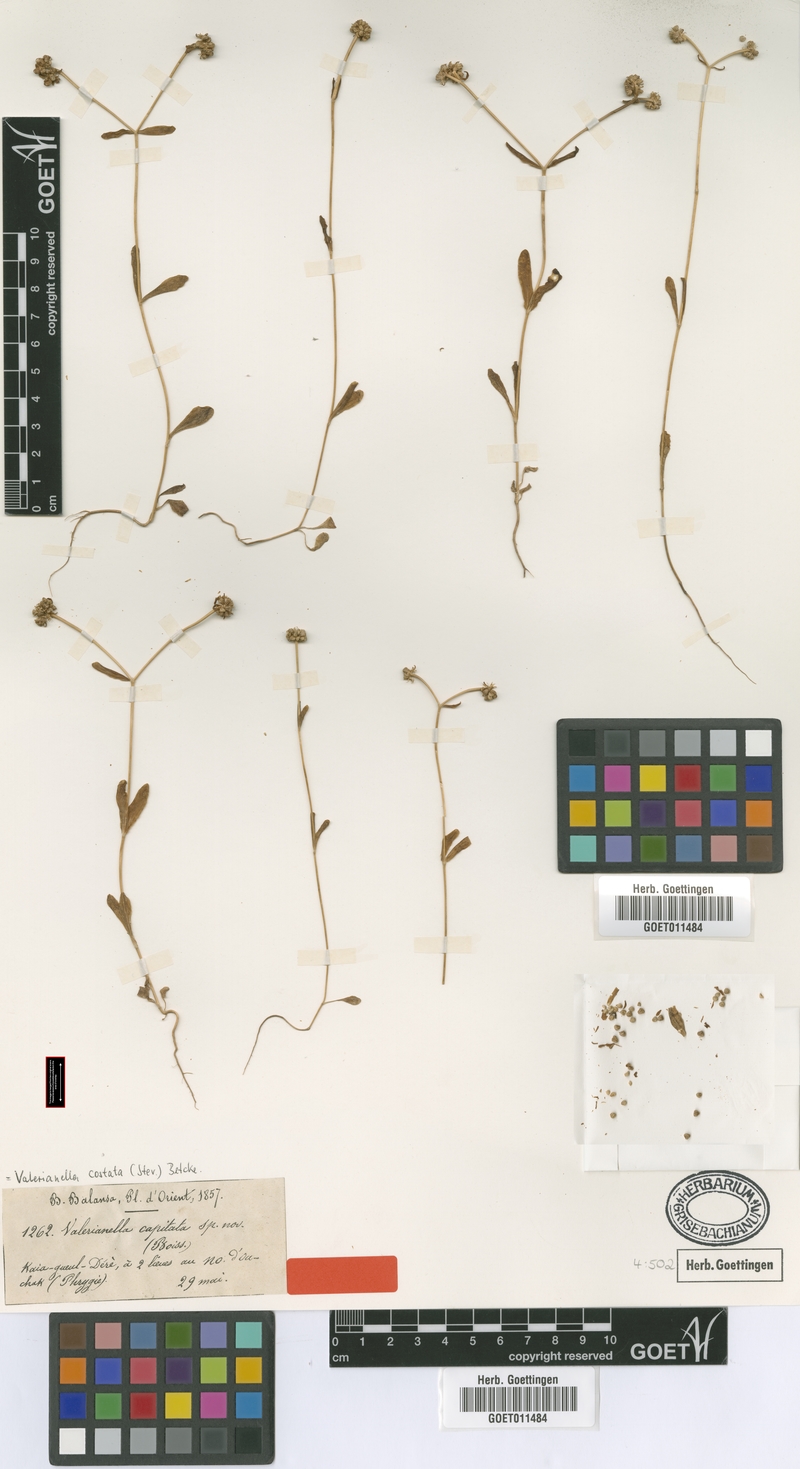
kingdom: Plantae
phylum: Tracheophyta
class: Magnoliopsida
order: Dipsacales
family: Caprifoliaceae
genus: Valerianella
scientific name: Valerianella costata
